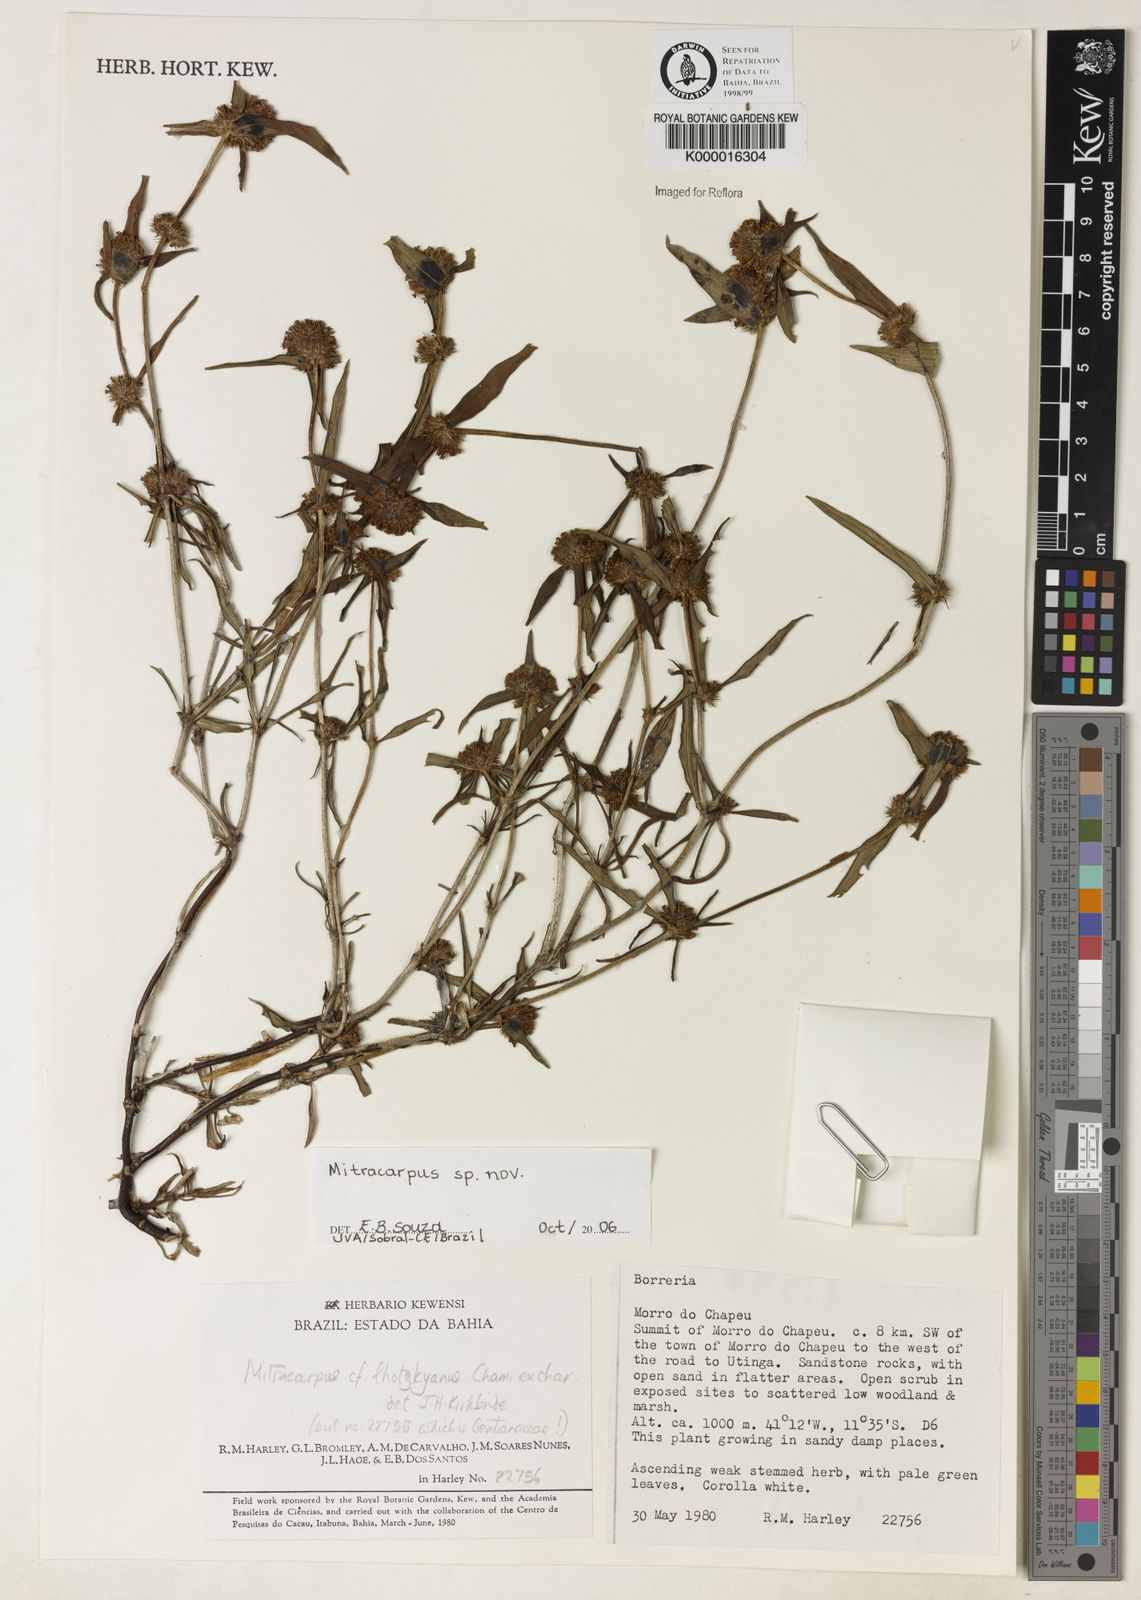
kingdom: Plantae
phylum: Tracheophyta
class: Magnoliopsida
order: Gentianales
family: Rubiaceae
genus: Mitracarpus
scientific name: Mitracarpus lhotzkyanus
